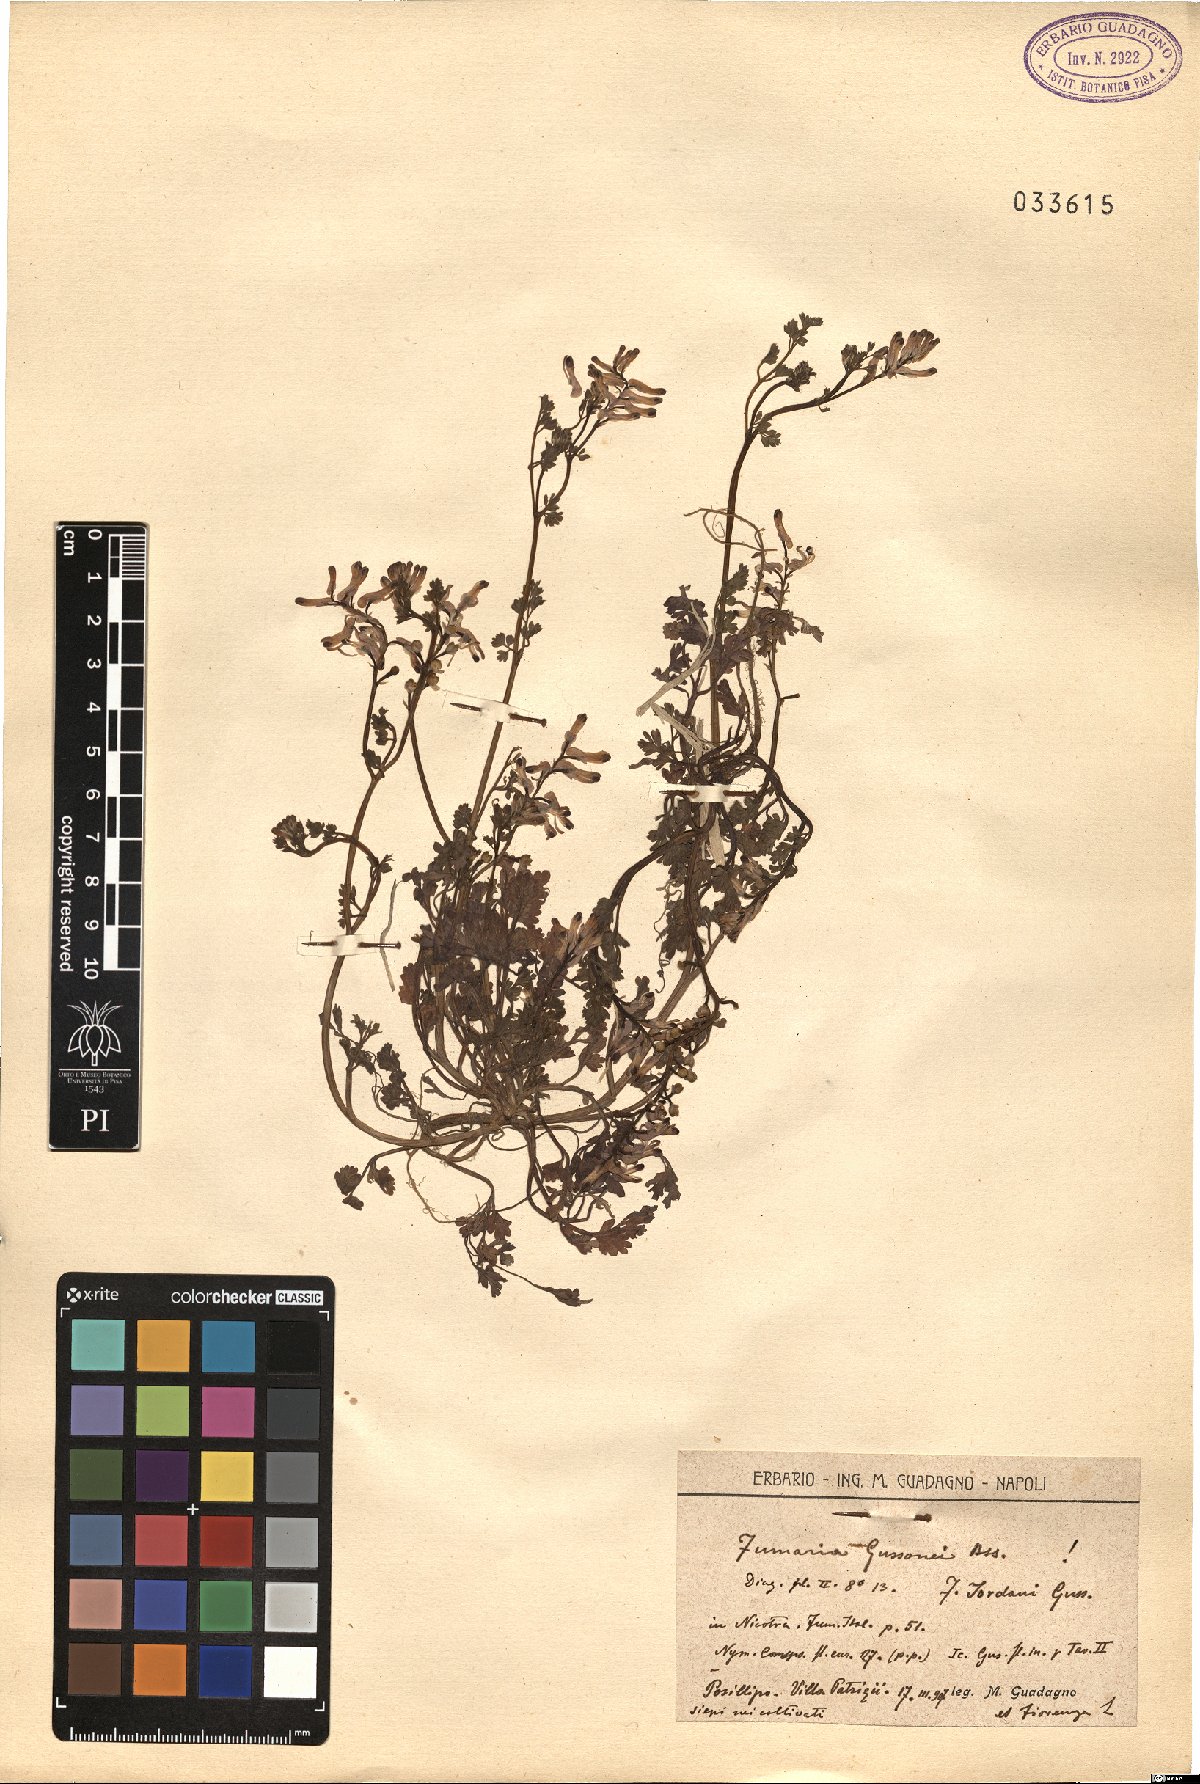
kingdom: Plantae
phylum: Tracheophyta
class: Magnoliopsida
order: Ranunculales
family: Papaveraceae
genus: Fumaria
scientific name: Fumaria bastardii
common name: Tall ramping-fumitory
